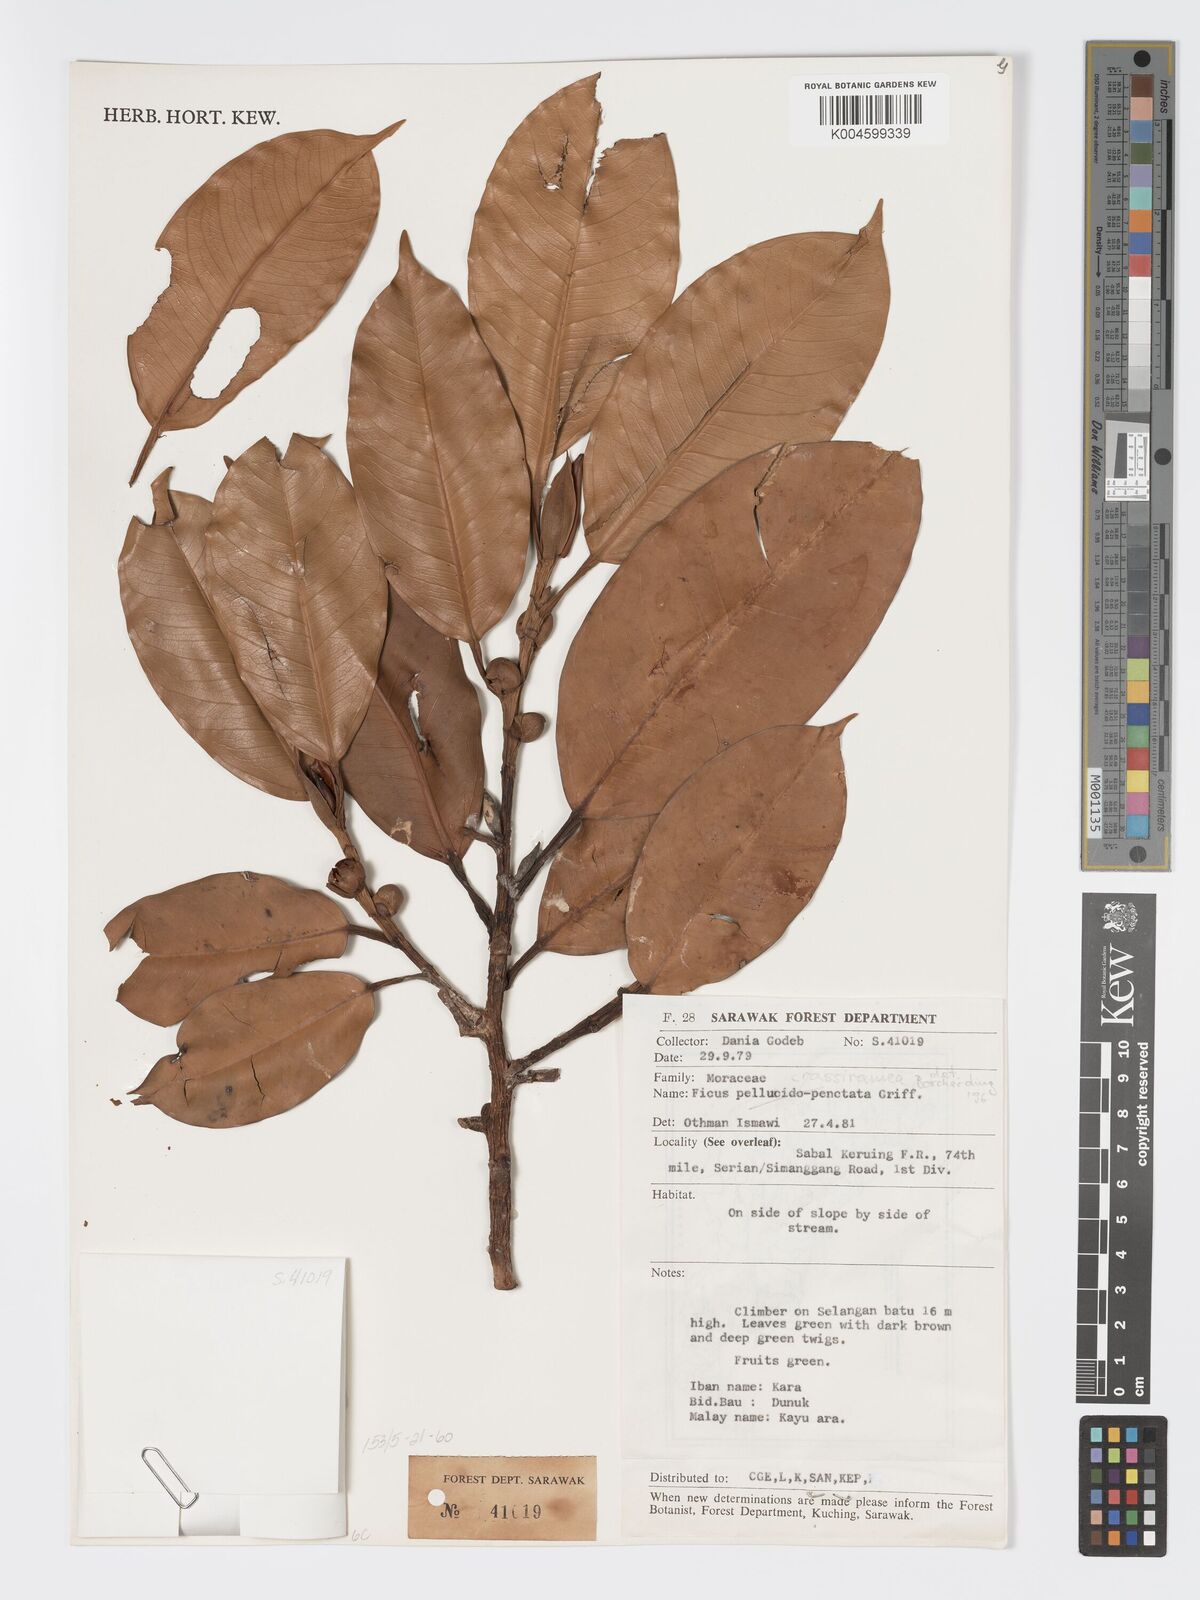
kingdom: Plantae
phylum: Tracheophyta
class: Magnoliopsida
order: Rosales
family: Moraceae
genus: Ficus
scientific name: Ficus crassiramea
